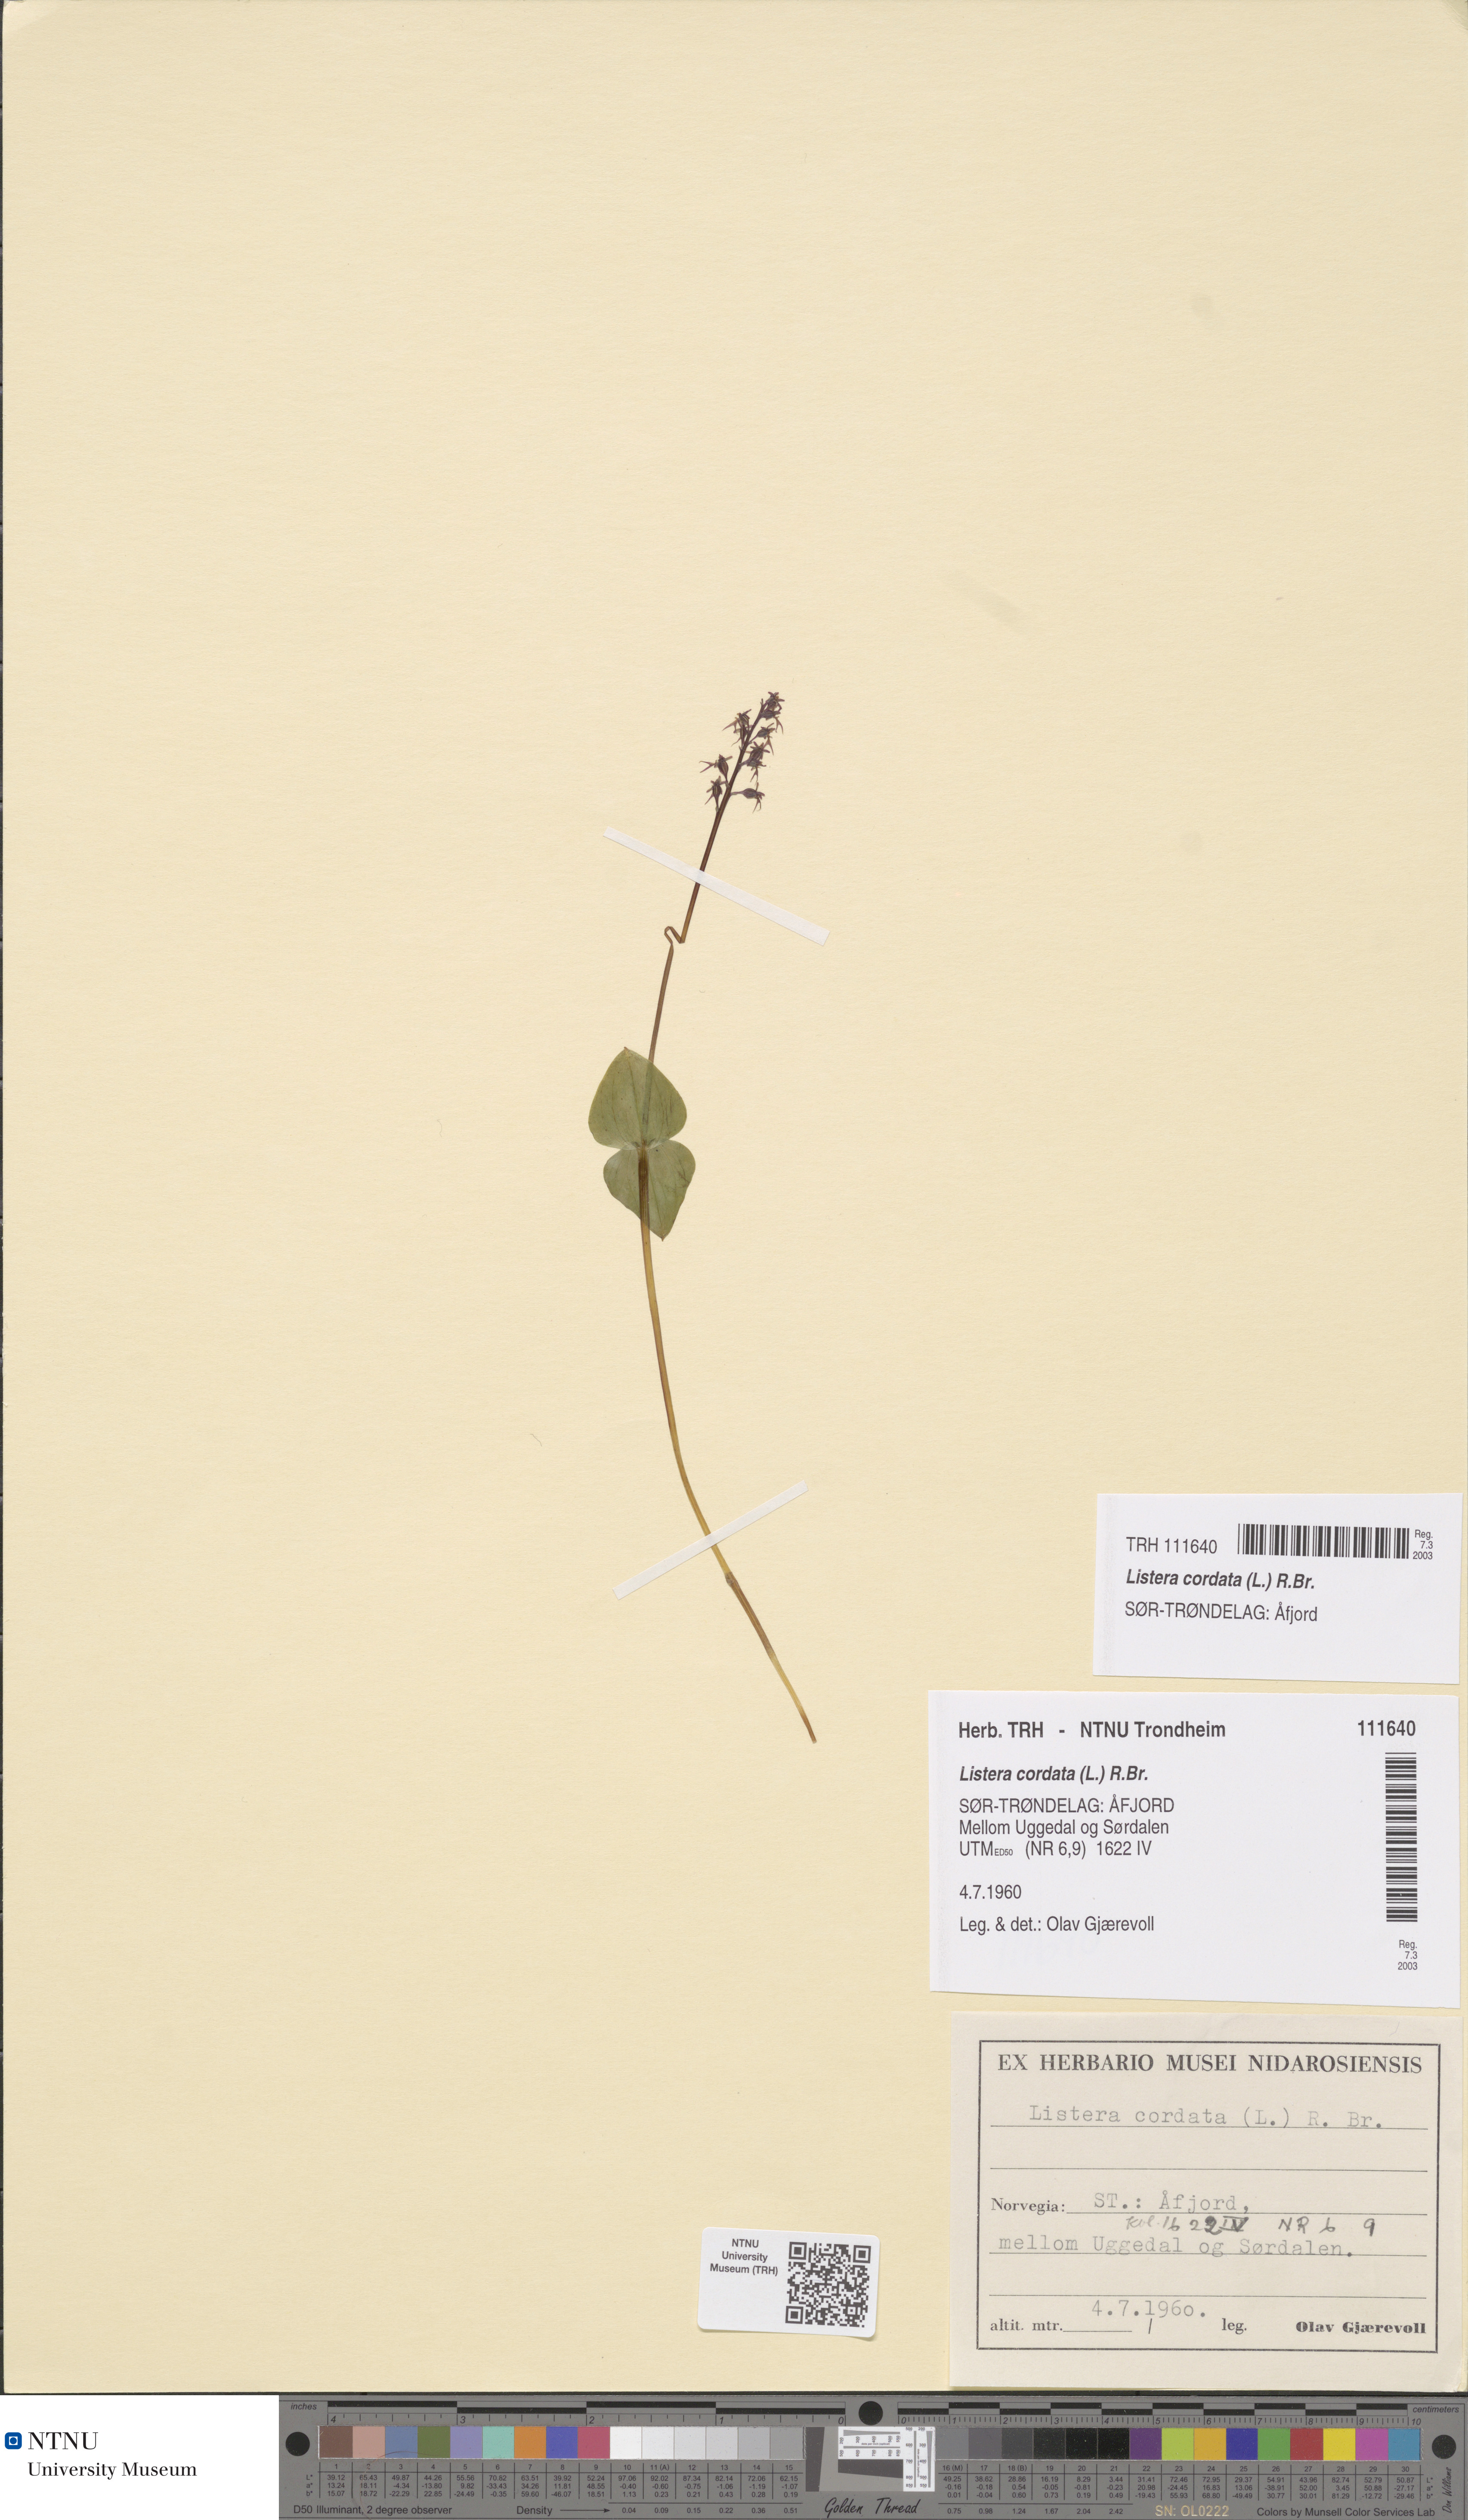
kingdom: Plantae
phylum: Tracheophyta
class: Liliopsida
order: Asparagales
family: Orchidaceae
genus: Neottia
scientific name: Neottia cordata
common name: Lesser twayblade
